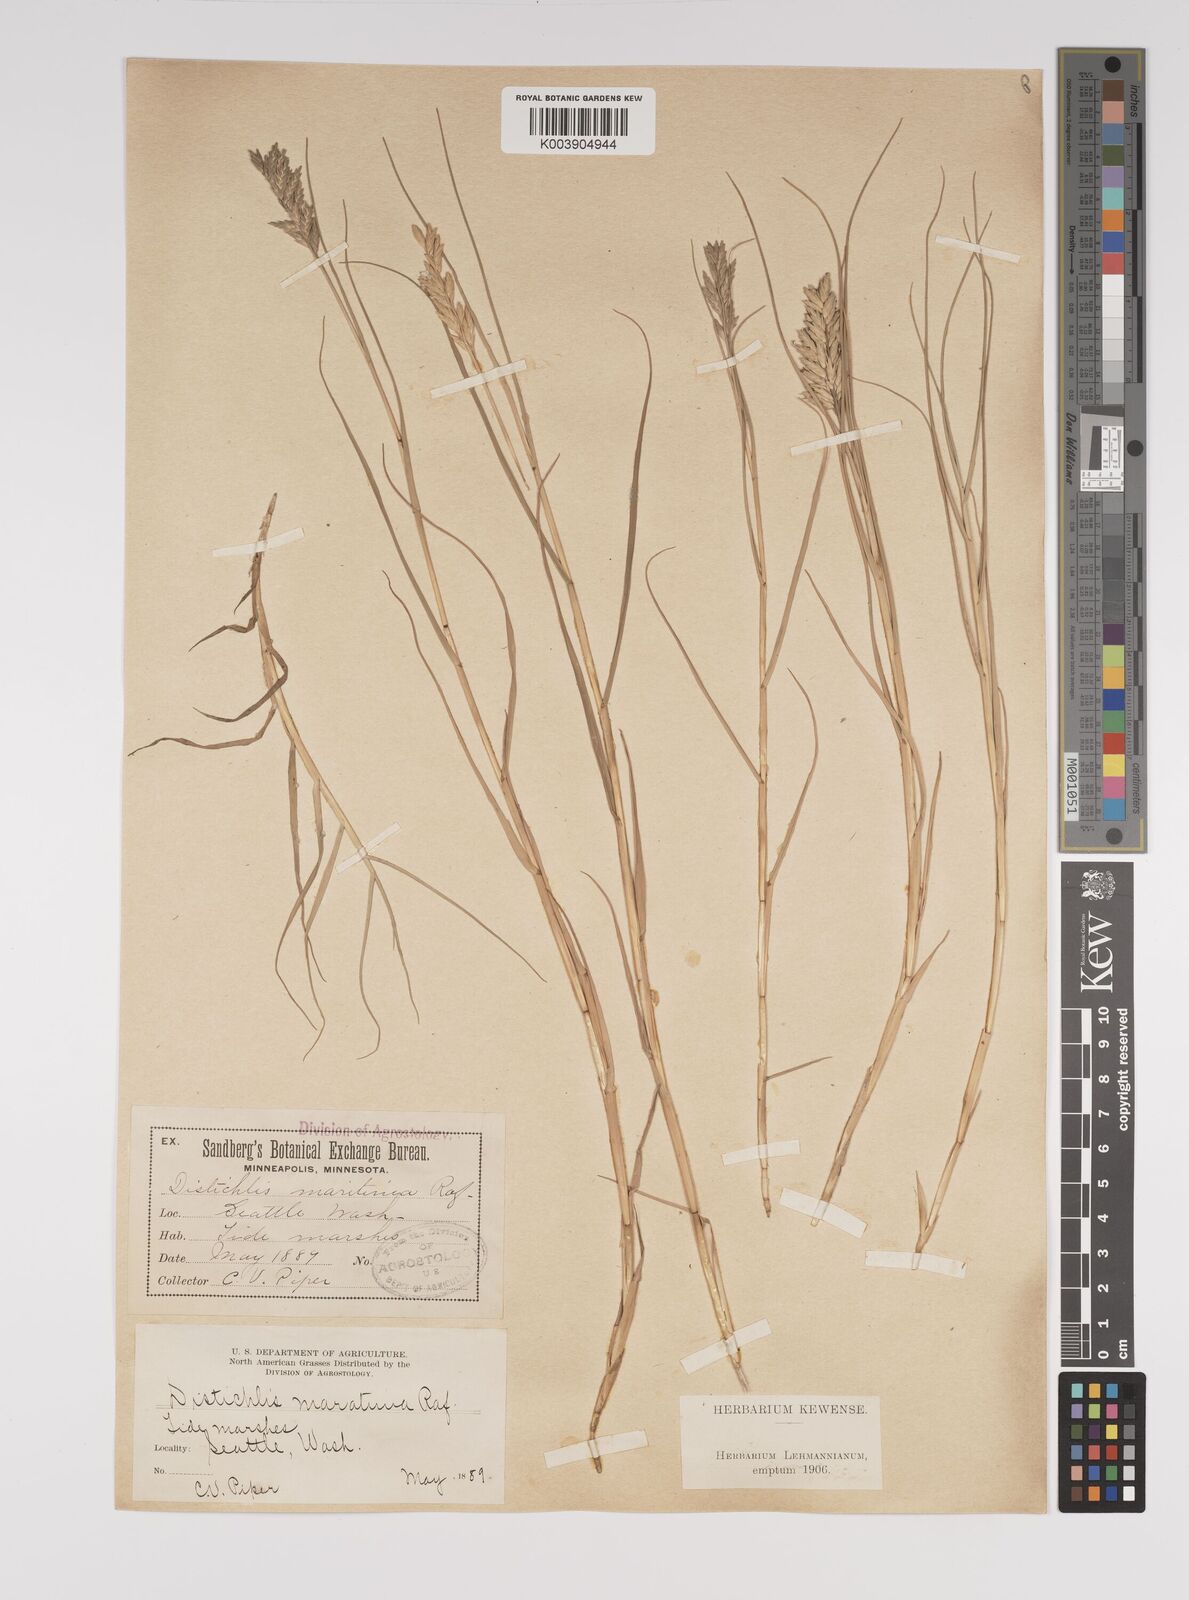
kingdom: Plantae
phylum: Tracheophyta
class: Liliopsida
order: Poales
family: Poaceae
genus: Distichlis
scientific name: Distichlis spicata
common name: Saltgrass
